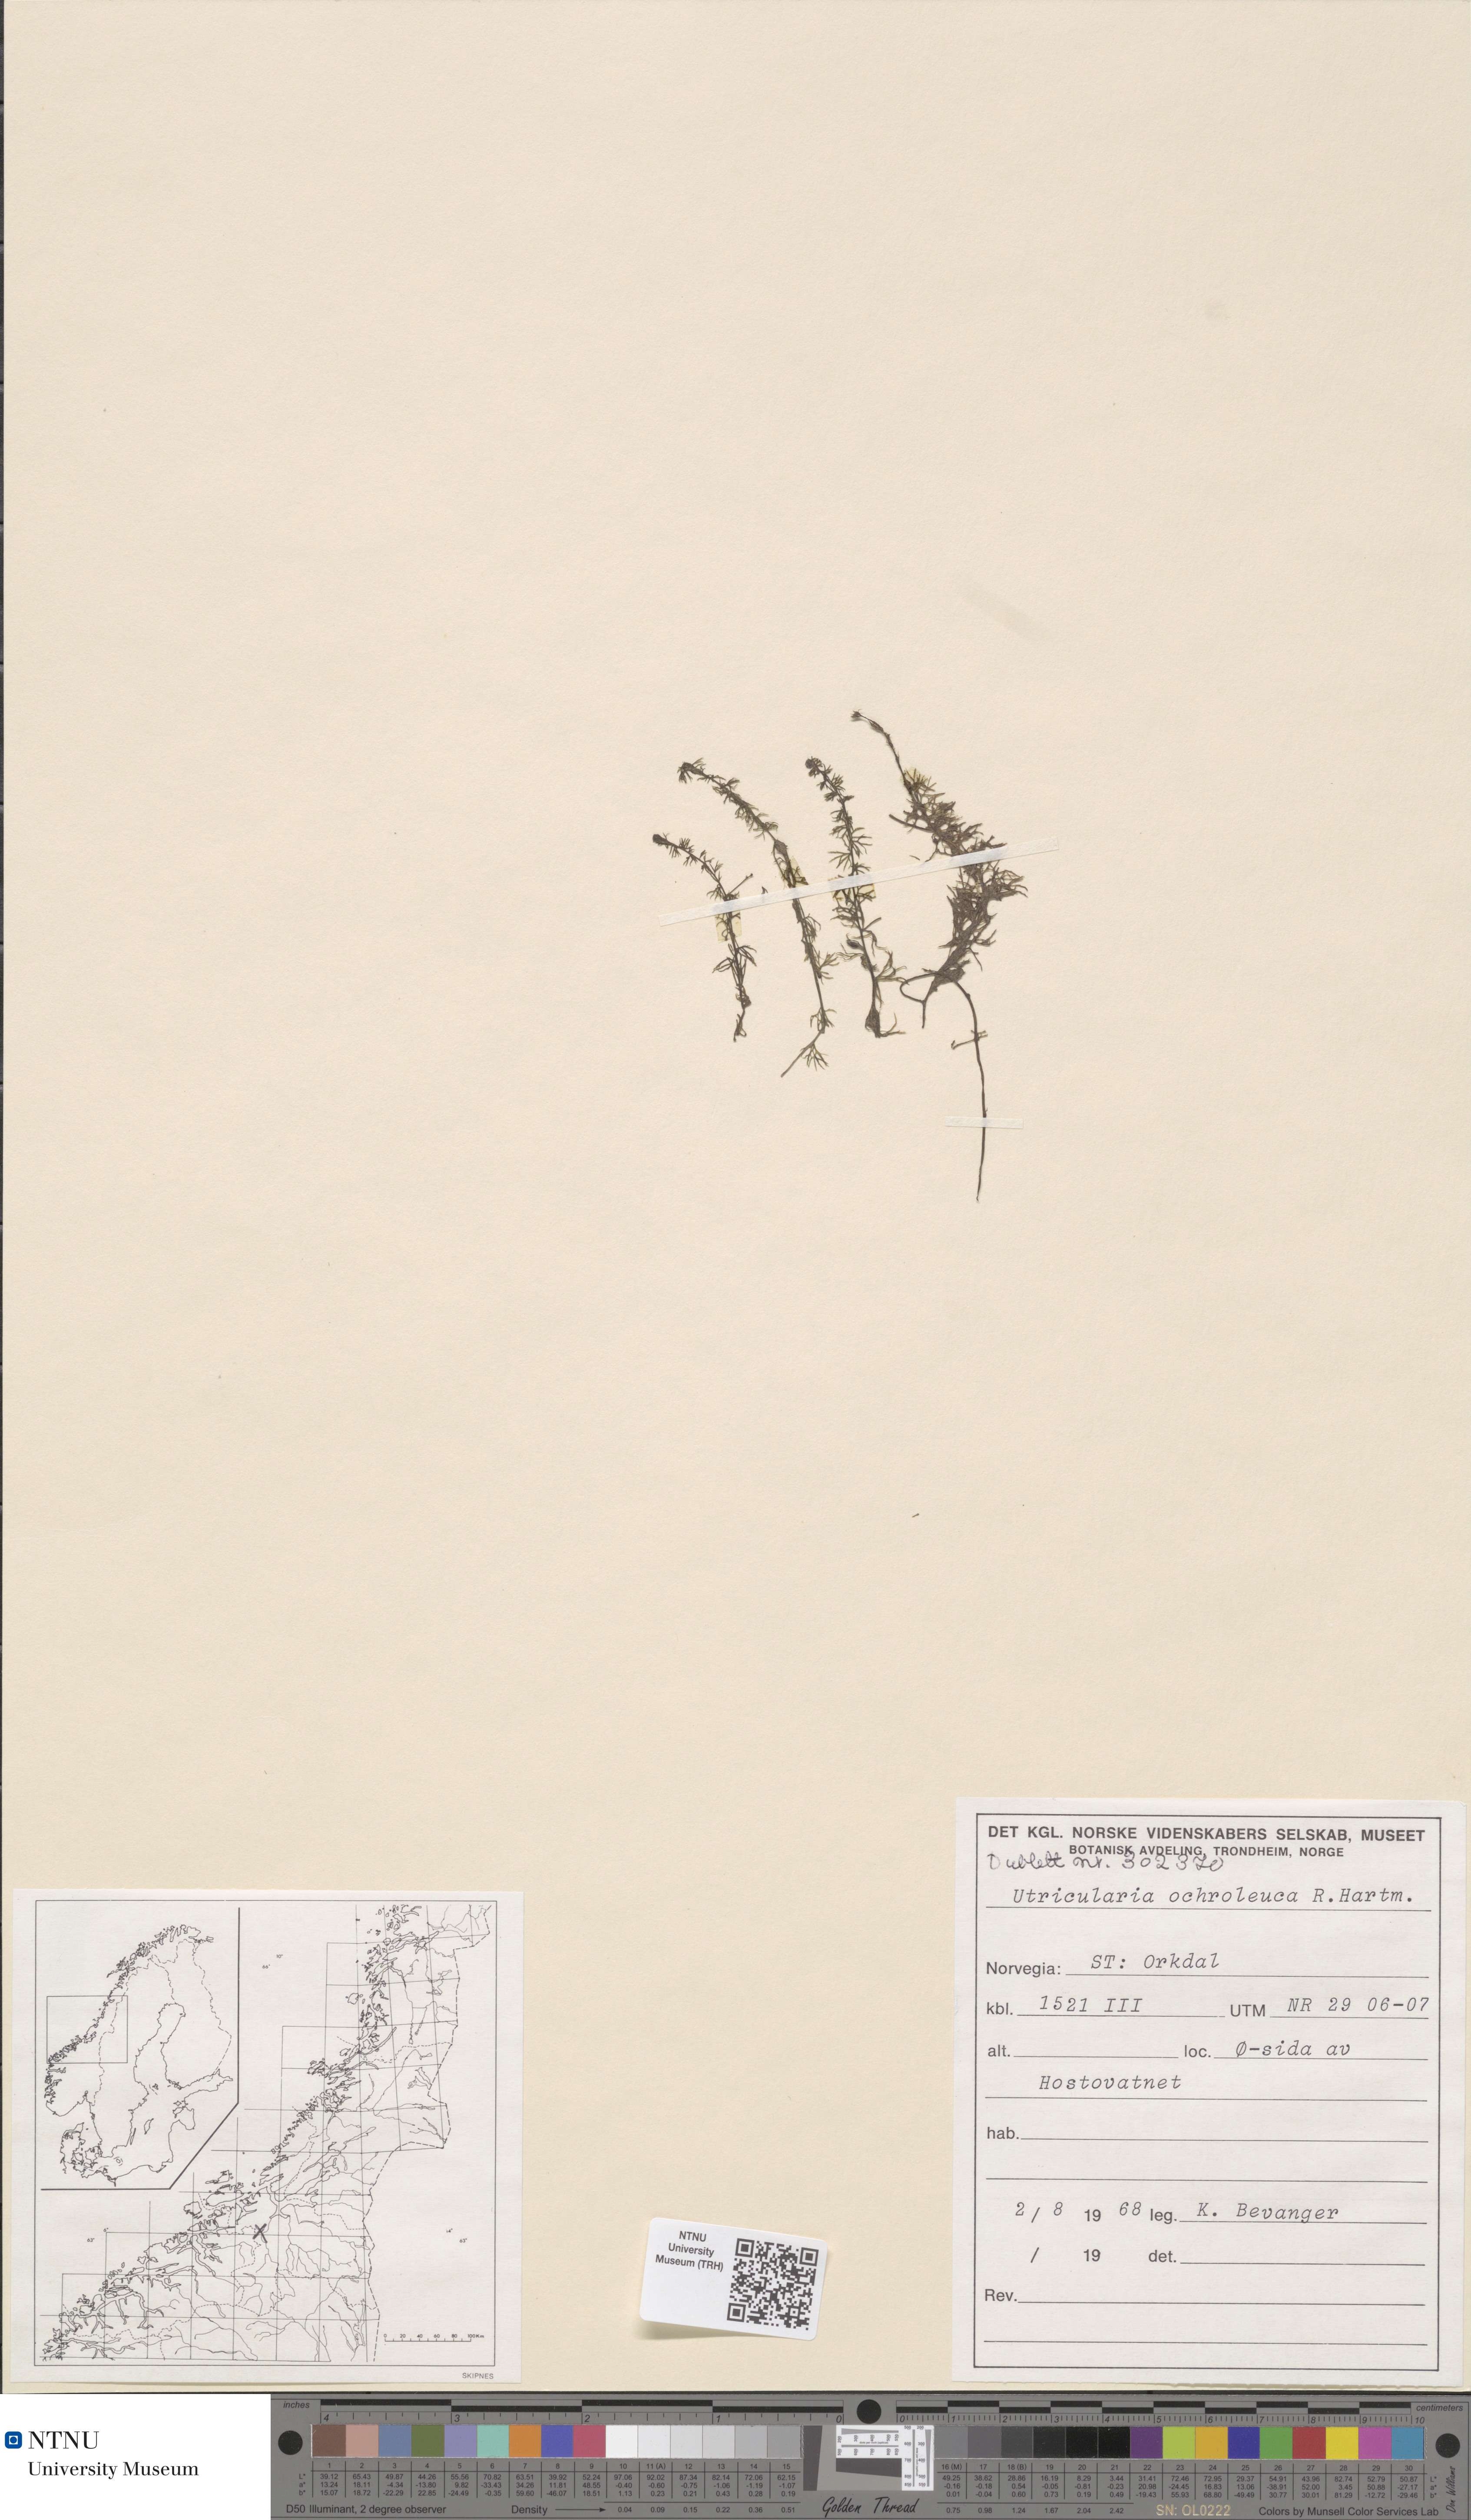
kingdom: Plantae
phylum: Tracheophyta
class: Magnoliopsida
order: Lamiales
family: Lentibulariaceae
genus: Utricularia
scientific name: Utricularia ochroleuca
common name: Pale bladderwort
